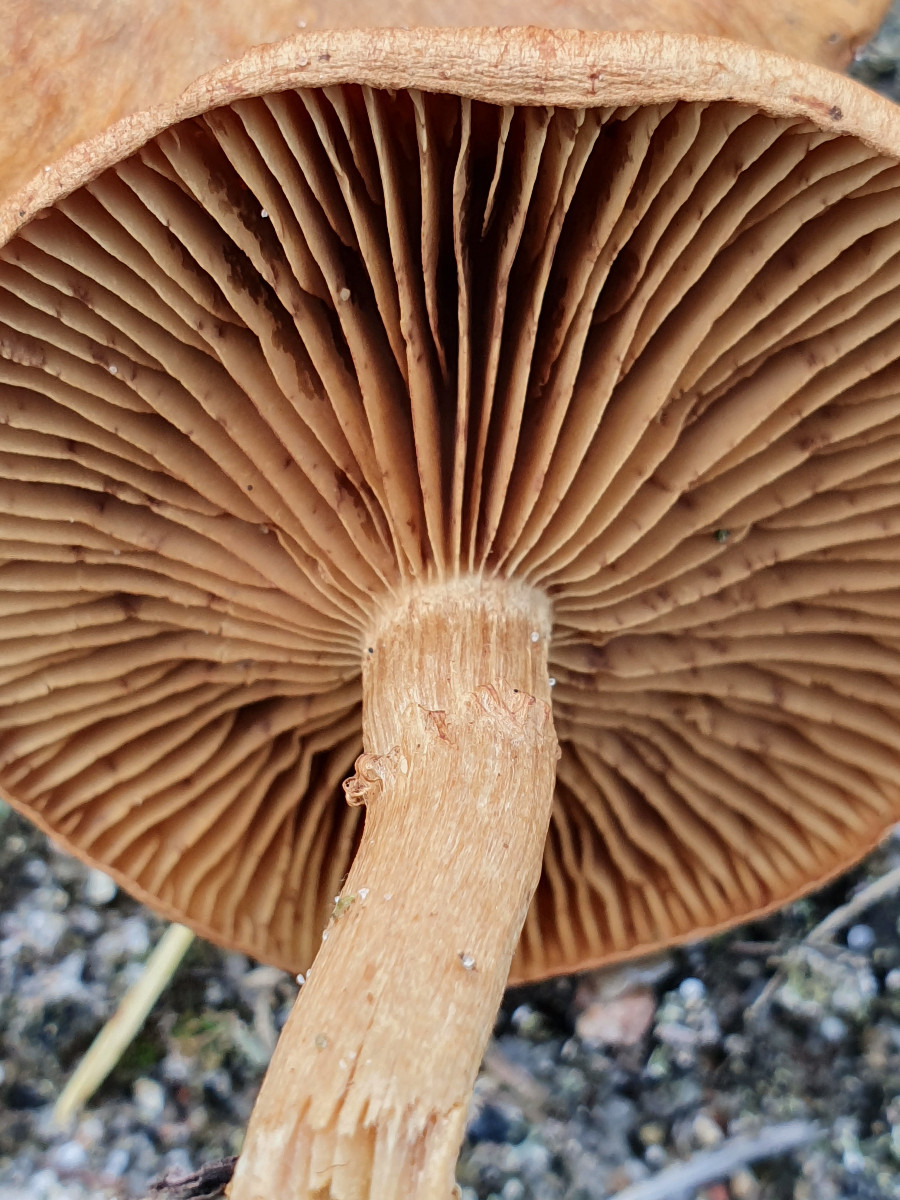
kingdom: Fungi
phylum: Basidiomycota
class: Agaricomycetes
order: Agaricales
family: Inocybaceae
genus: Mallocybe
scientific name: Mallocybe
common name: Trævlhat
